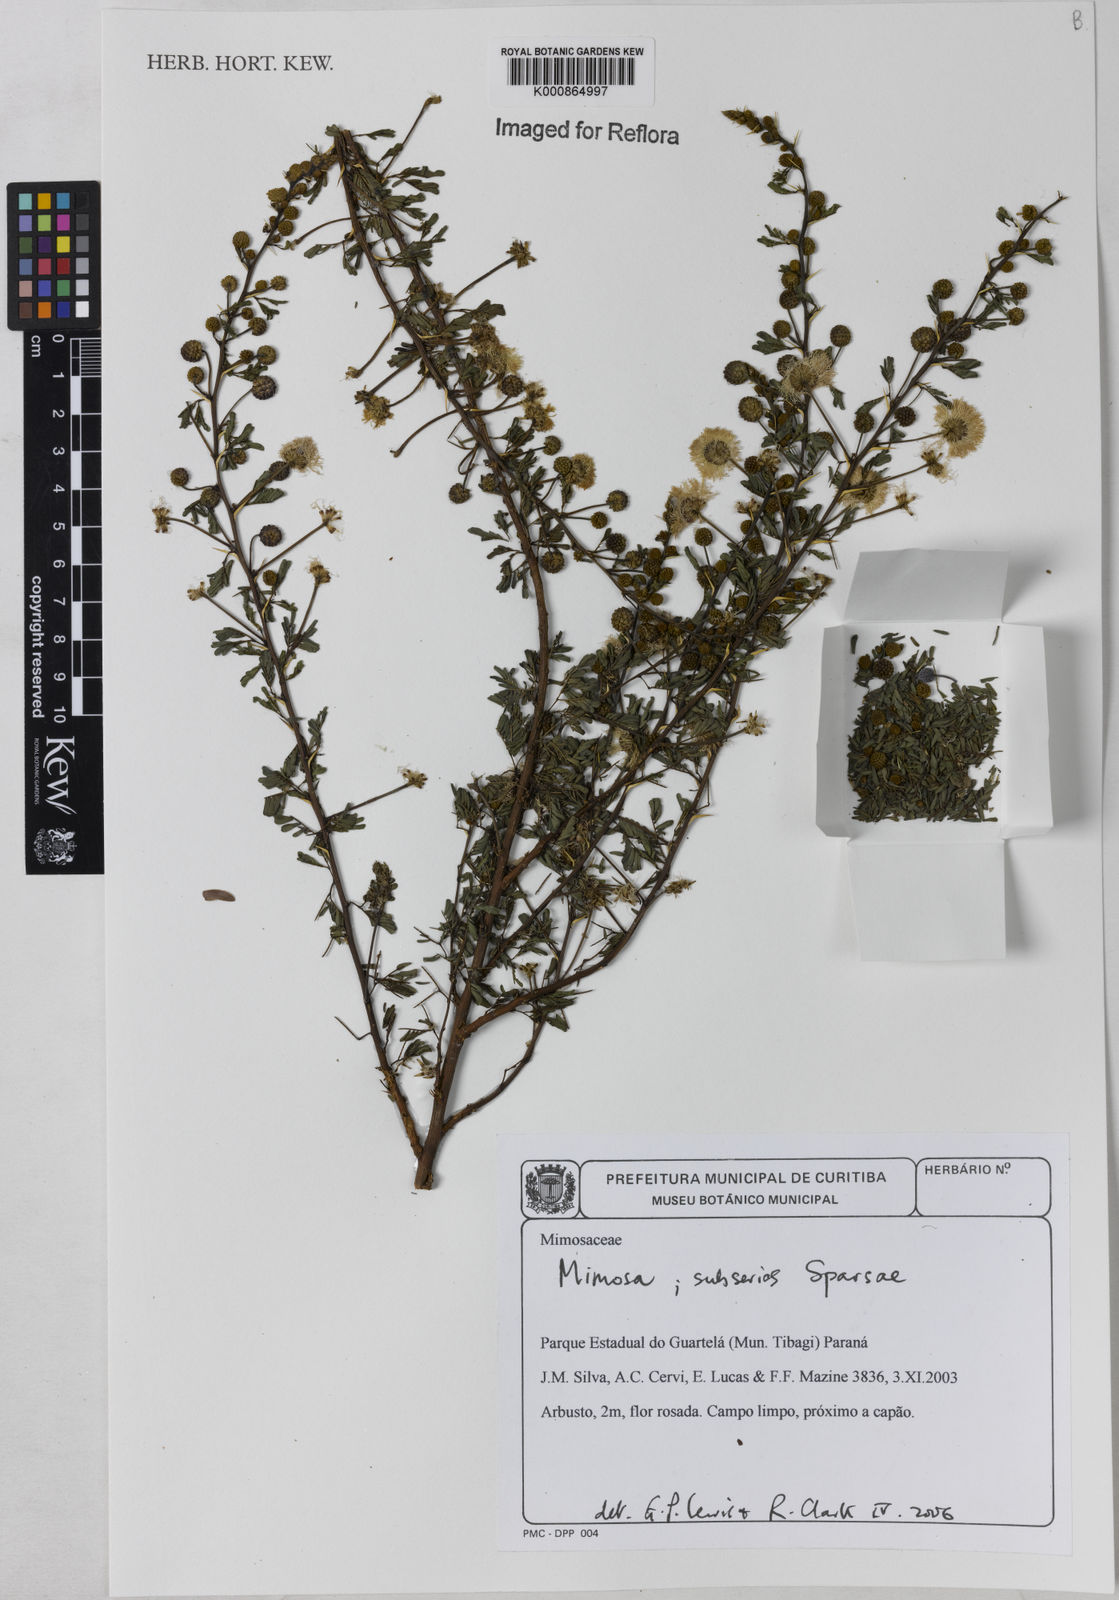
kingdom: Plantae
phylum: Tracheophyta
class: Magnoliopsida
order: Fabales
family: Fabaceae
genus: Mimosa
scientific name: Mimosa
